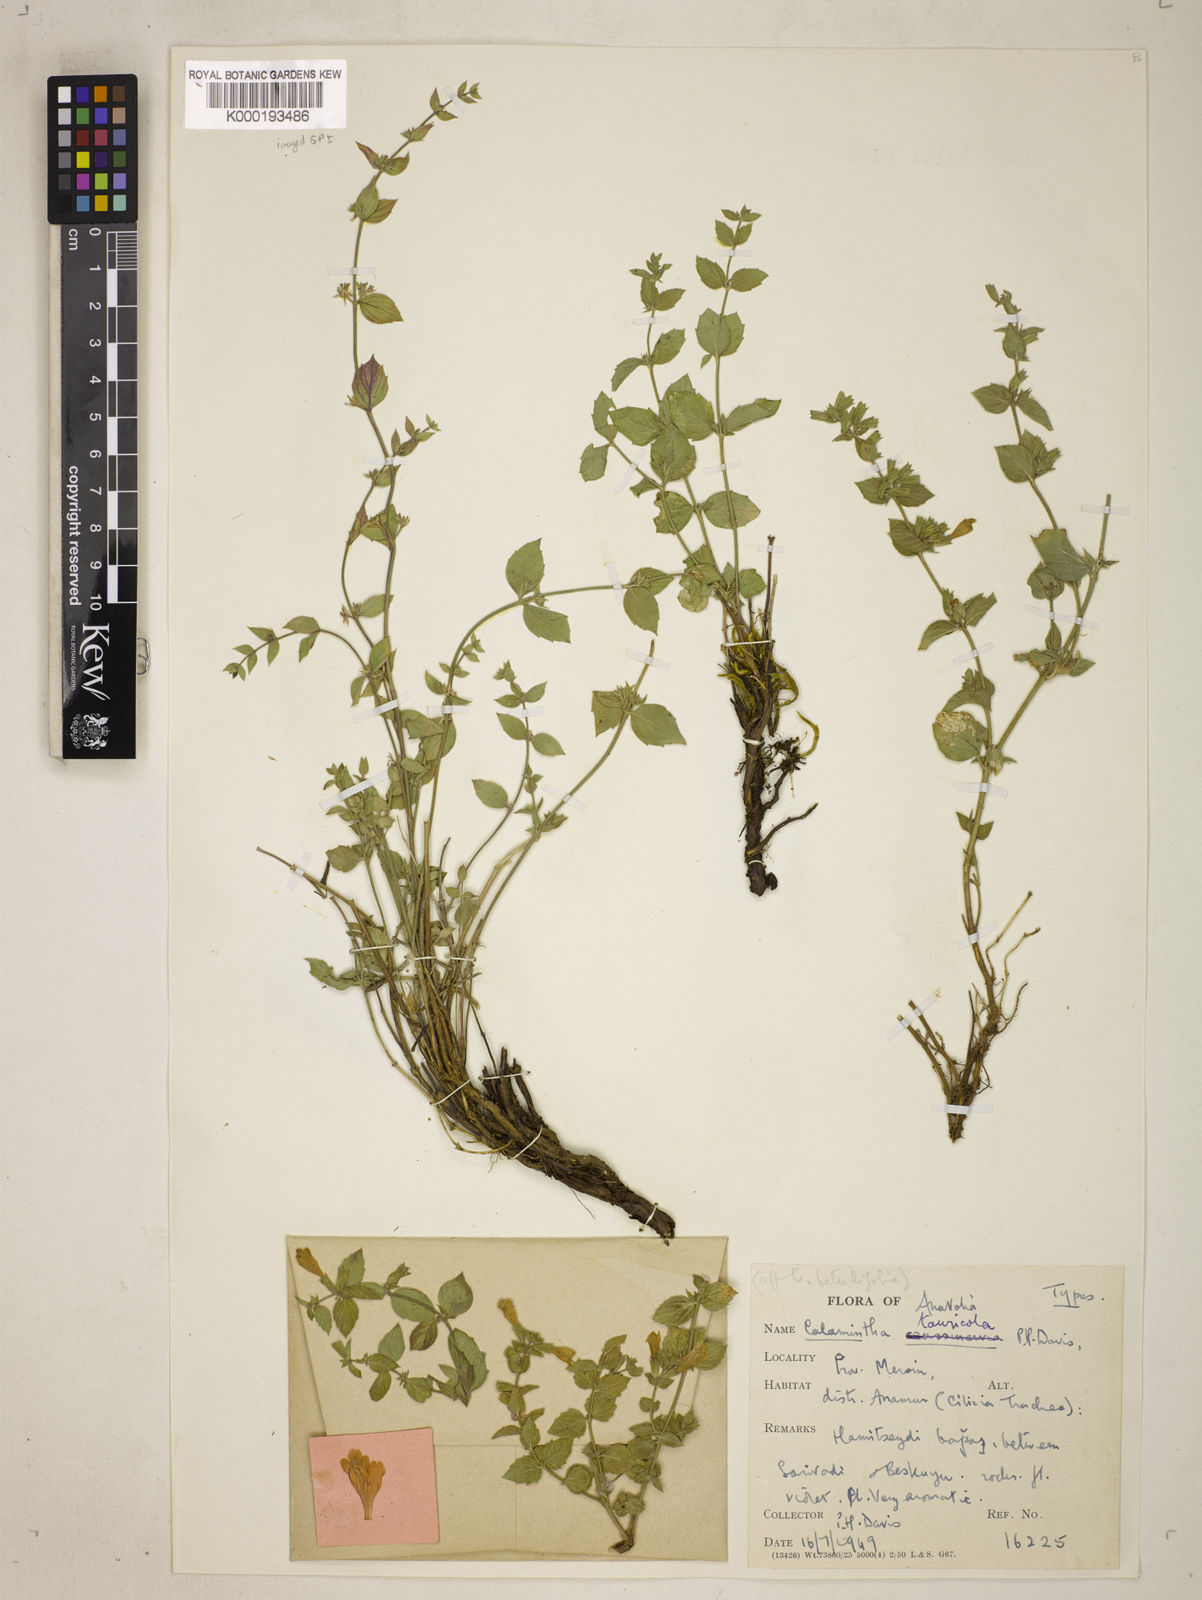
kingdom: Plantae
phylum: Tracheophyta
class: Magnoliopsida
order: Lamiales
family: Lamiaceae
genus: Clinopodium
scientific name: Clinopodium tauricola
